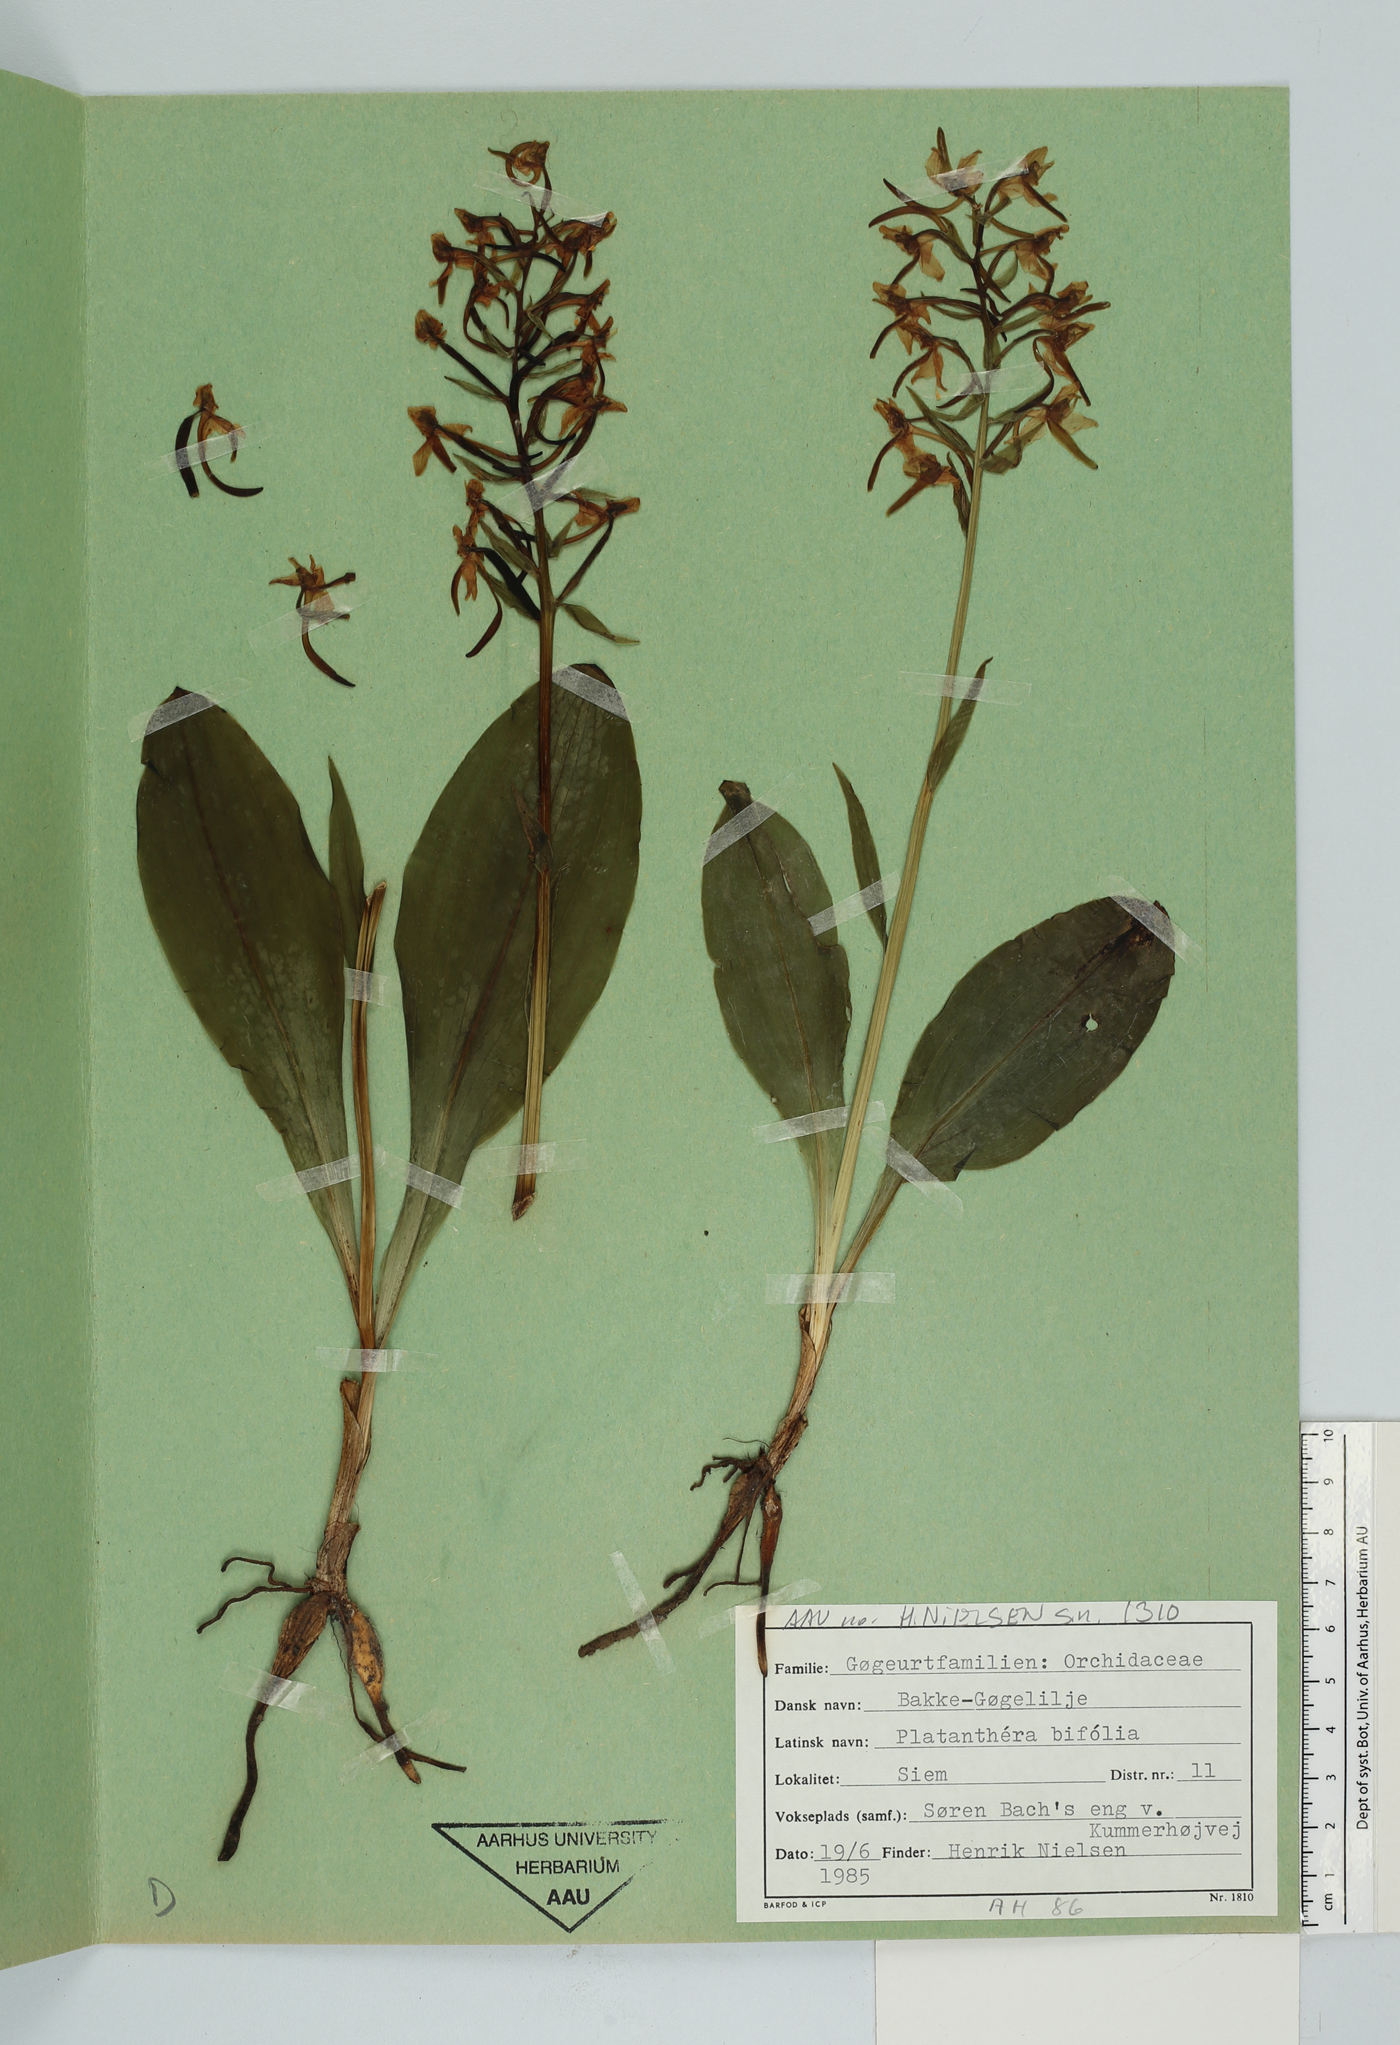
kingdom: Plantae
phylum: Tracheophyta
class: Liliopsida
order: Asparagales
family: Orchidaceae
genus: Platanthera
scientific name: Platanthera bifolia
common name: Lesser butterfly-orchid
